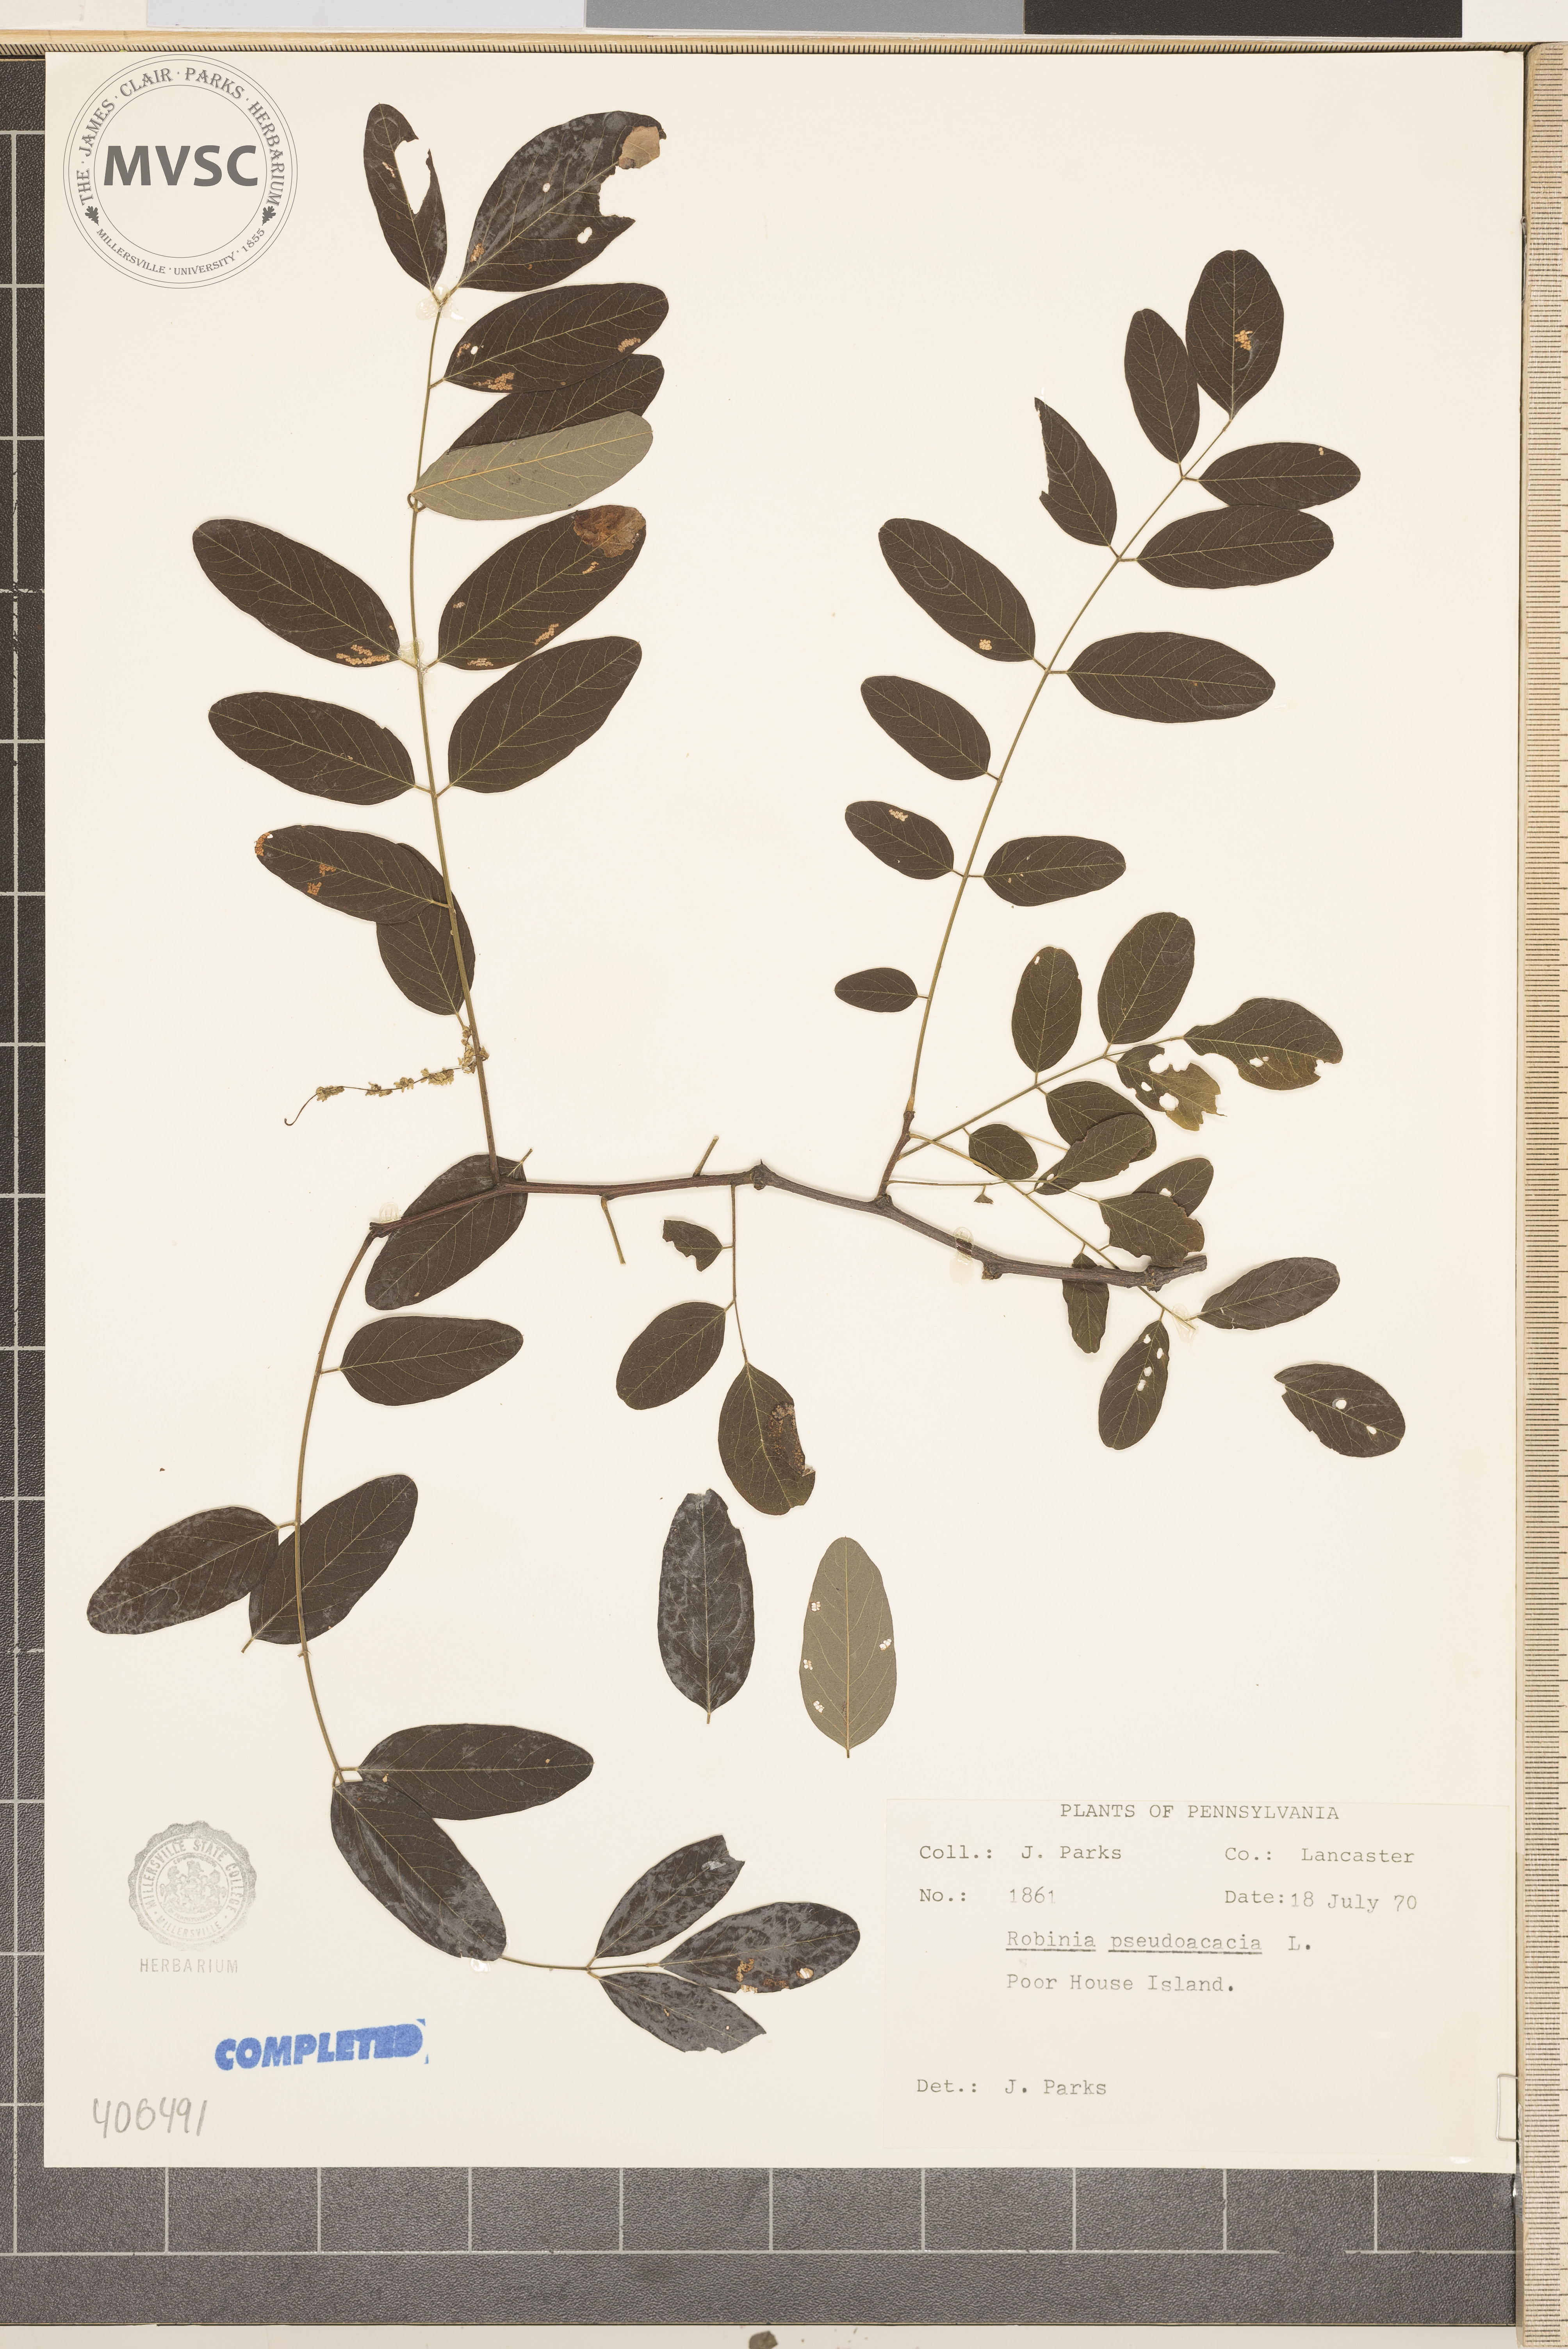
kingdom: Plantae
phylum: Tracheophyta
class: Magnoliopsida
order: Fabales
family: Fabaceae
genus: Robinia
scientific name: Robinia pseudoacacia
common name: black locust
